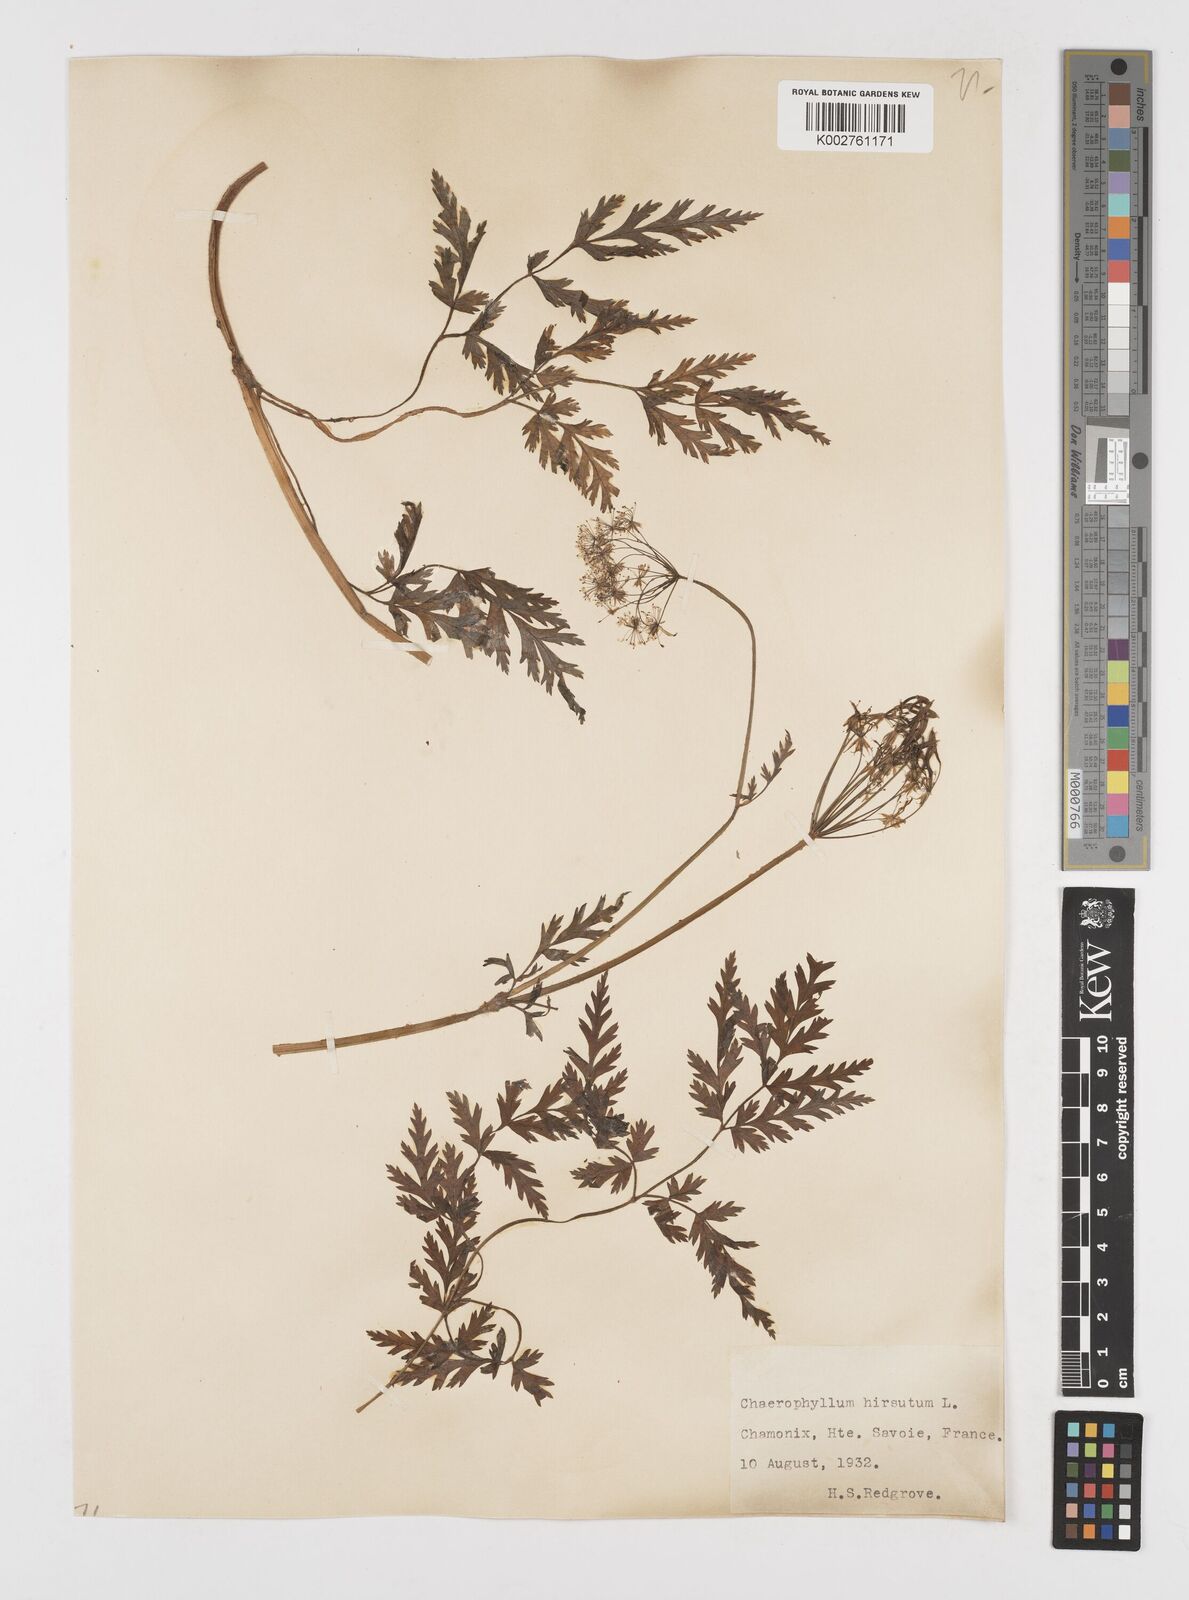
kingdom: Plantae
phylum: Tracheophyta
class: Magnoliopsida
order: Apiales
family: Apiaceae
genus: Chaerophyllum
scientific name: Chaerophyllum hirsutum
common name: Hairy chervil
